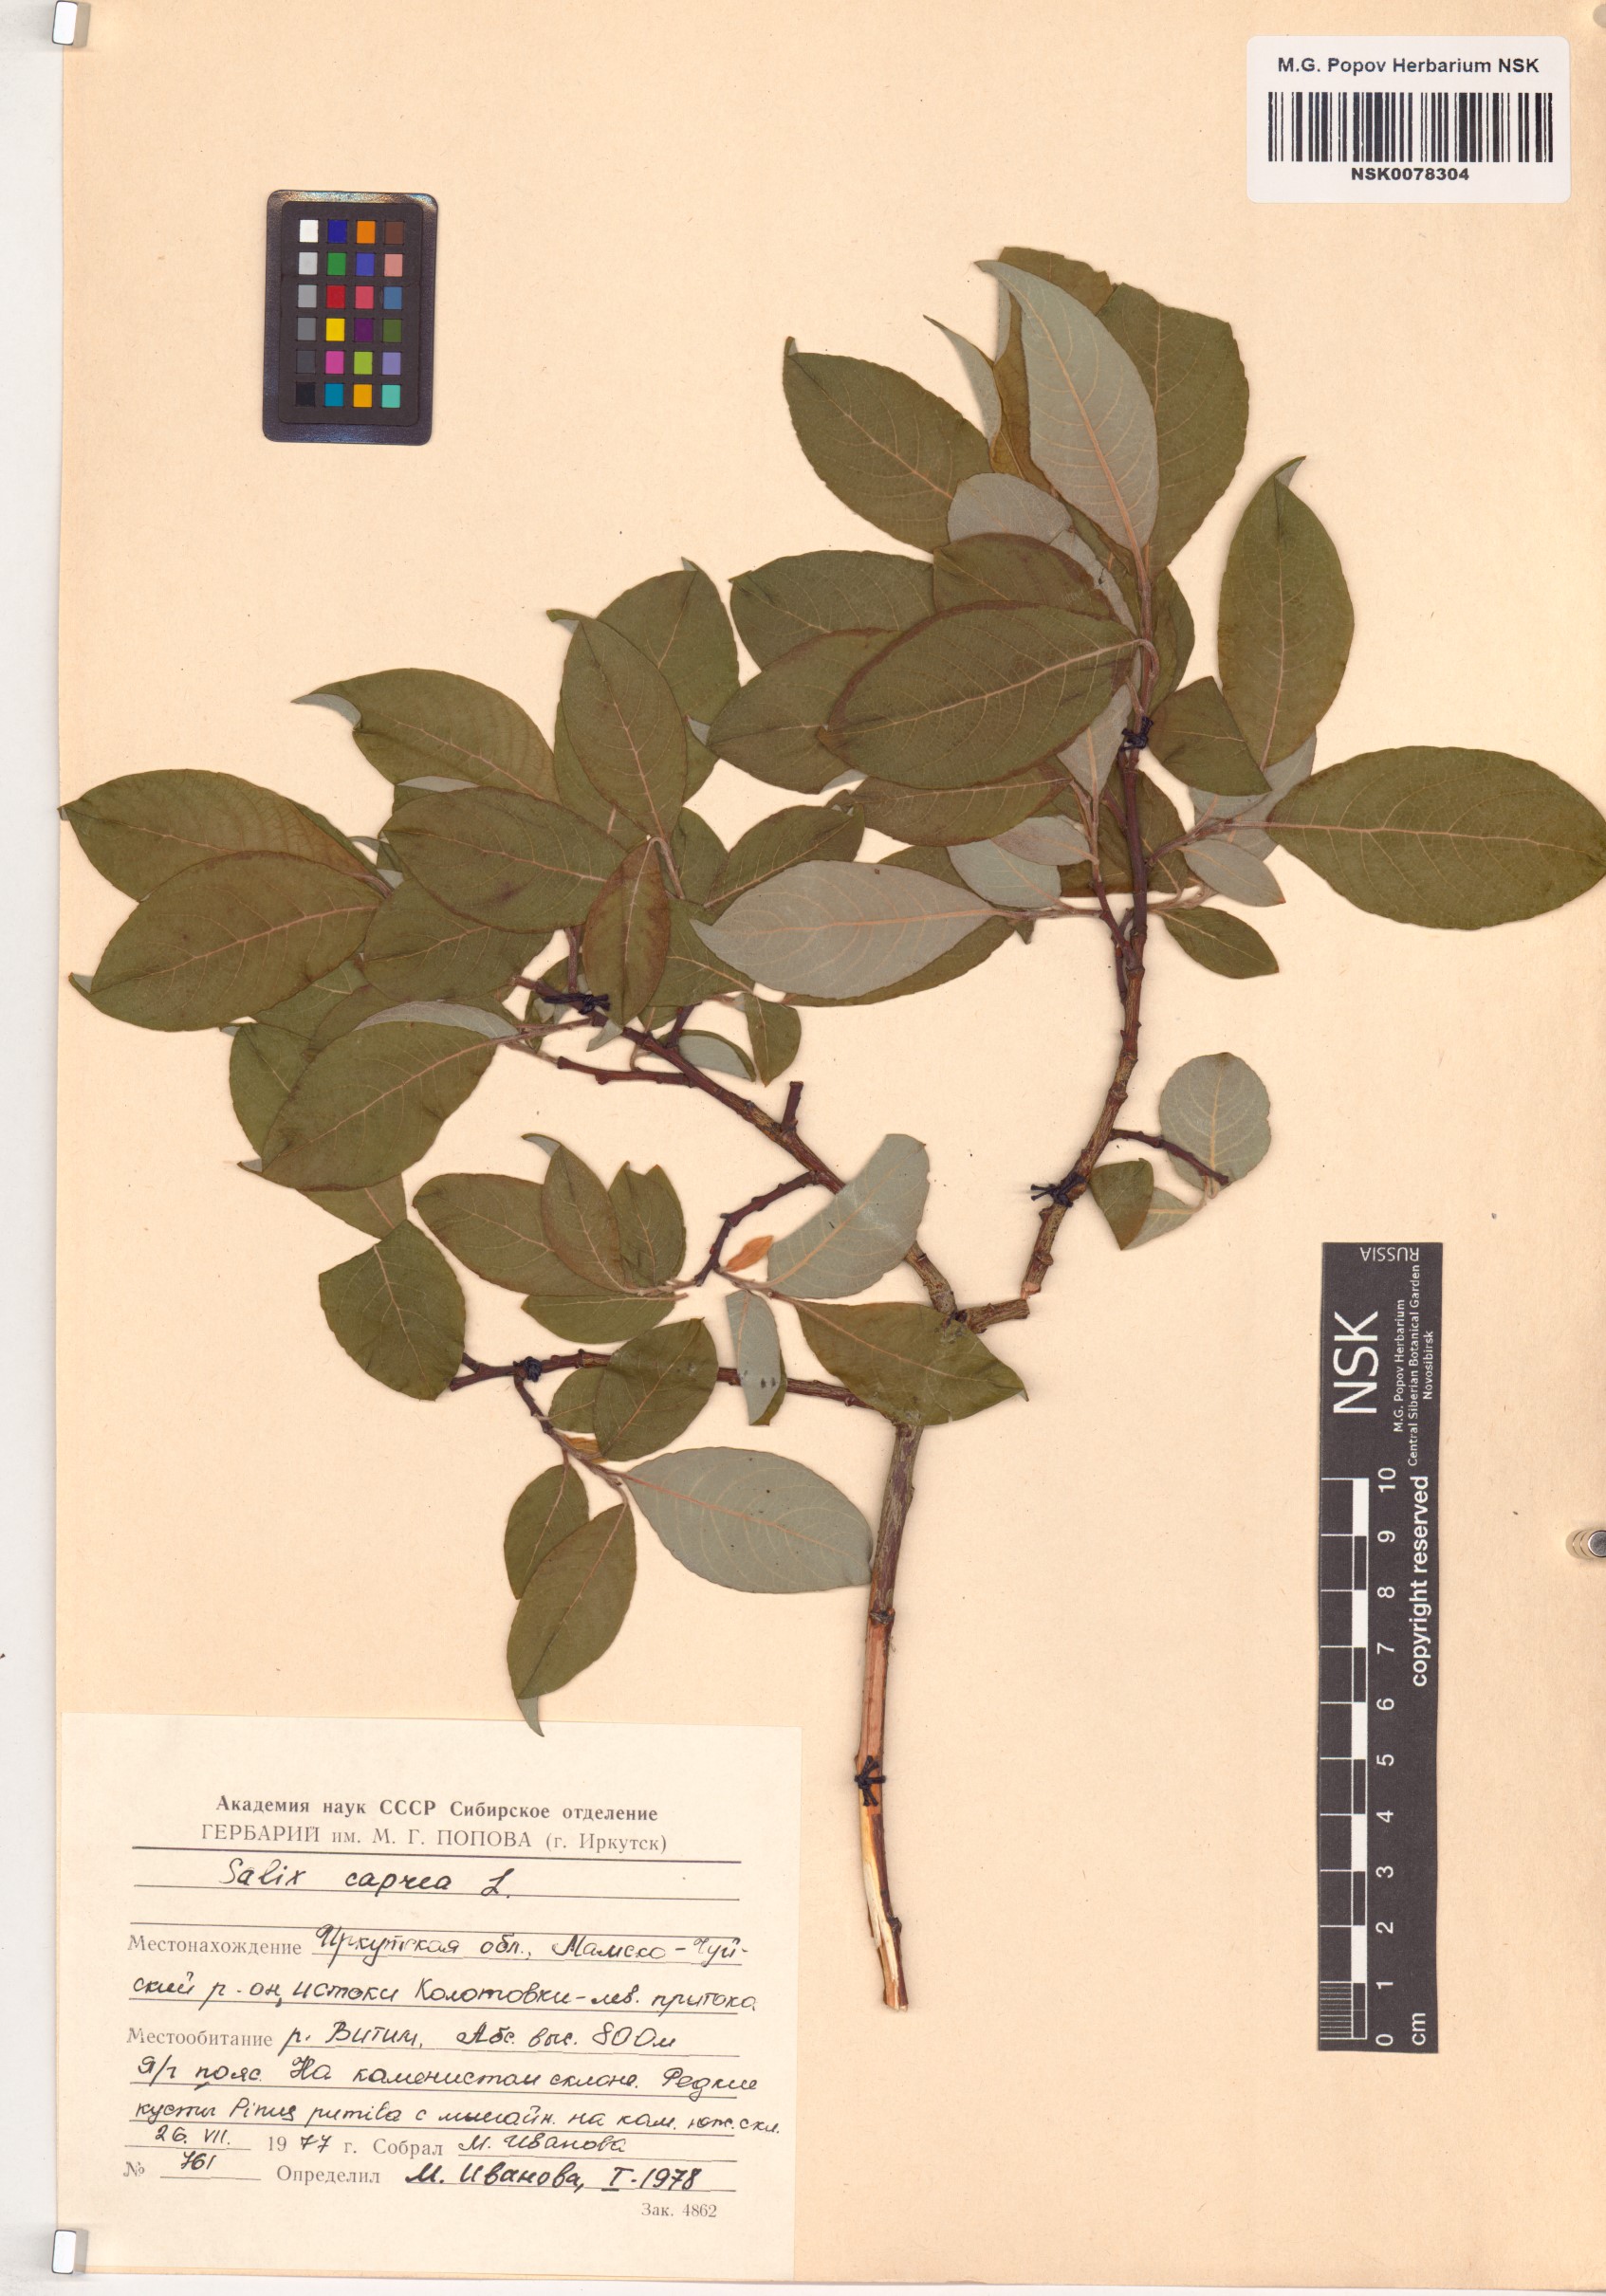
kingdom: Plantae
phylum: Tracheophyta
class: Magnoliopsida
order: Malpighiales
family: Salicaceae
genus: Salix
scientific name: Salix caprea
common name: Goat willow
